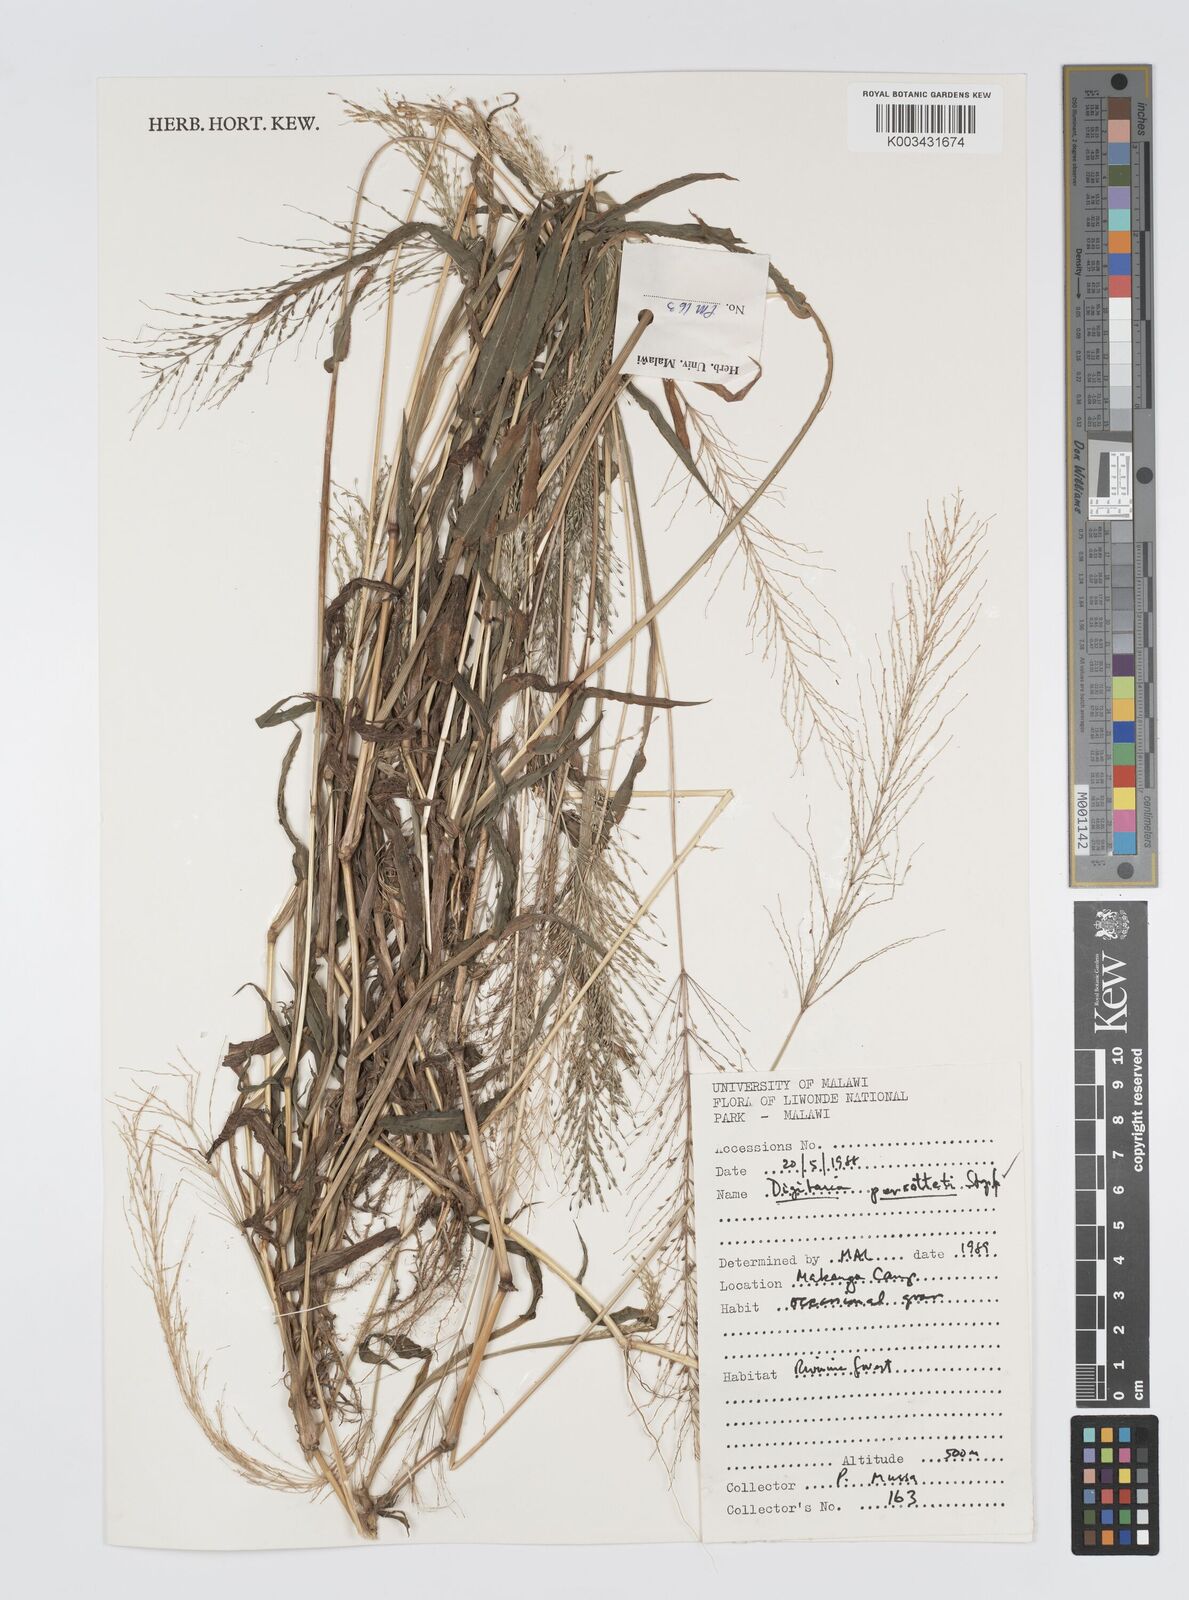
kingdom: Plantae
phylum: Tracheophyta
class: Liliopsida
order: Poales
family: Poaceae
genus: Digitaria
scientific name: Digitaria perrottetii
